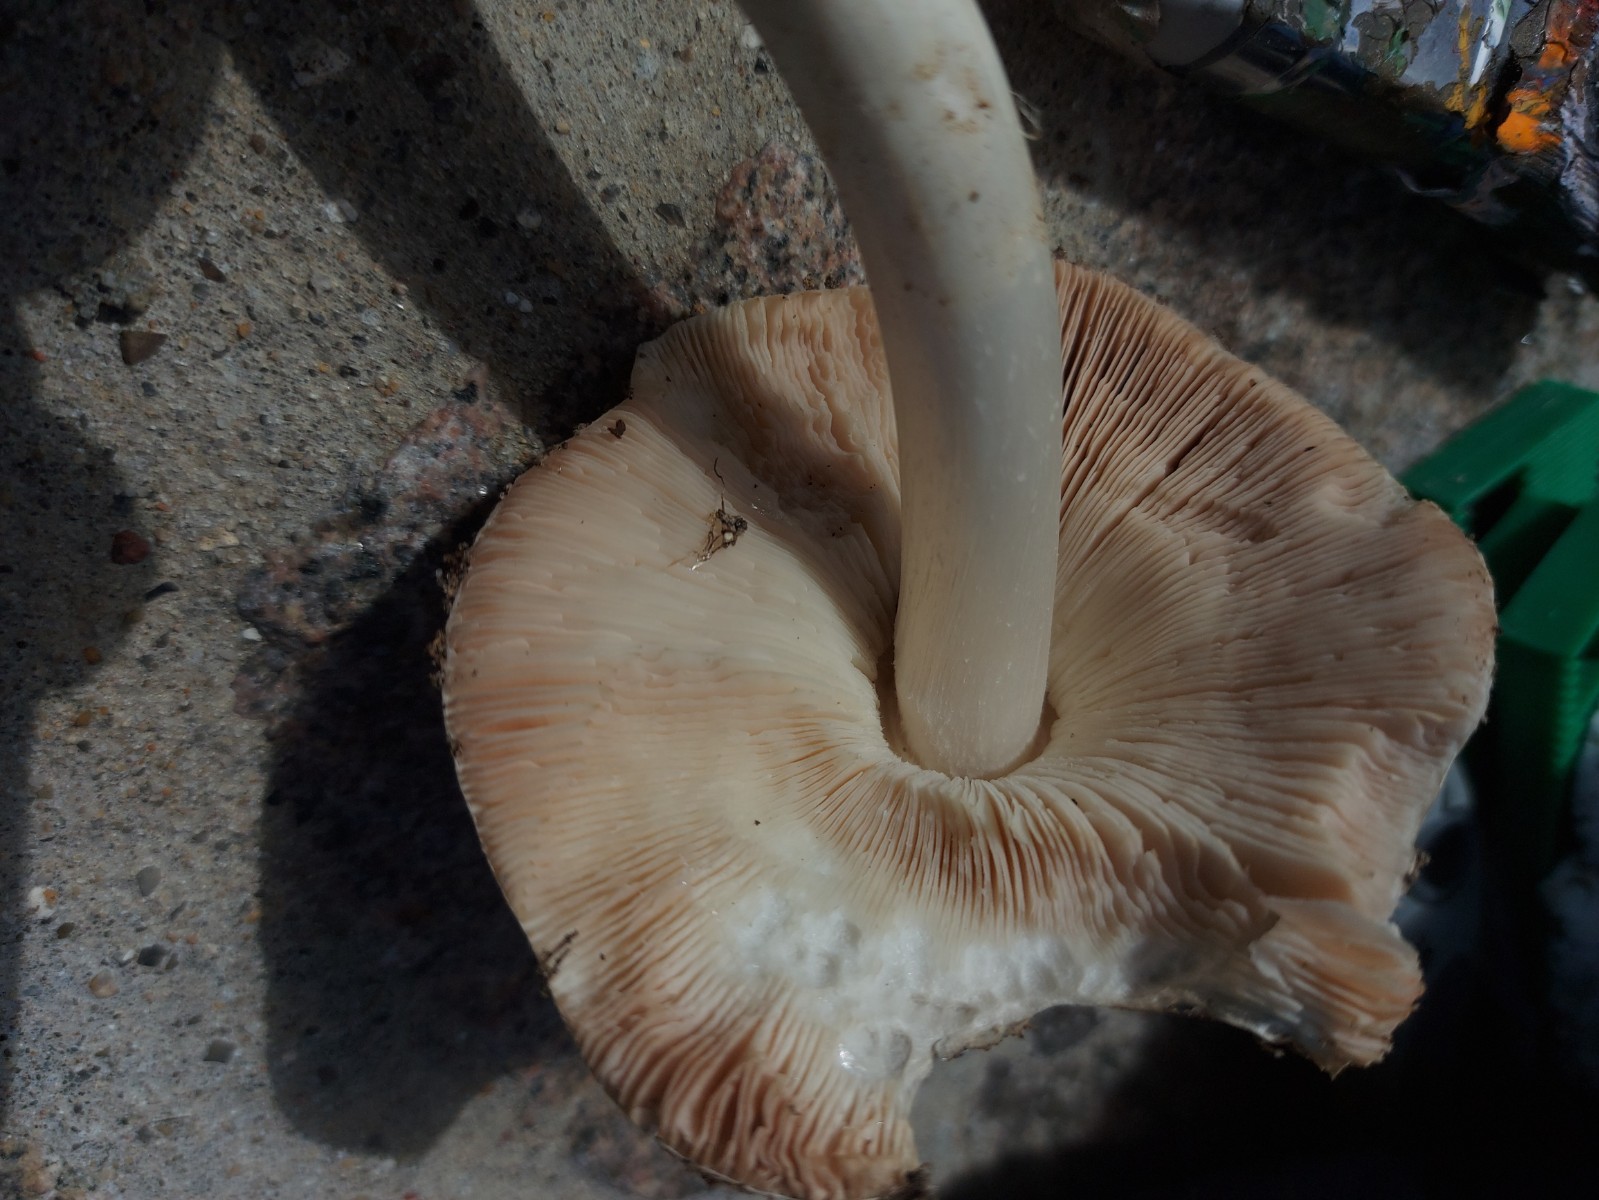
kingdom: Fungi
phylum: Basidiomycota
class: Agaricomycetes
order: Agaricales
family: Pluteaceae
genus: Volvopluteus
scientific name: Volvopluteus gloiocephalus
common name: høj posesvamp
